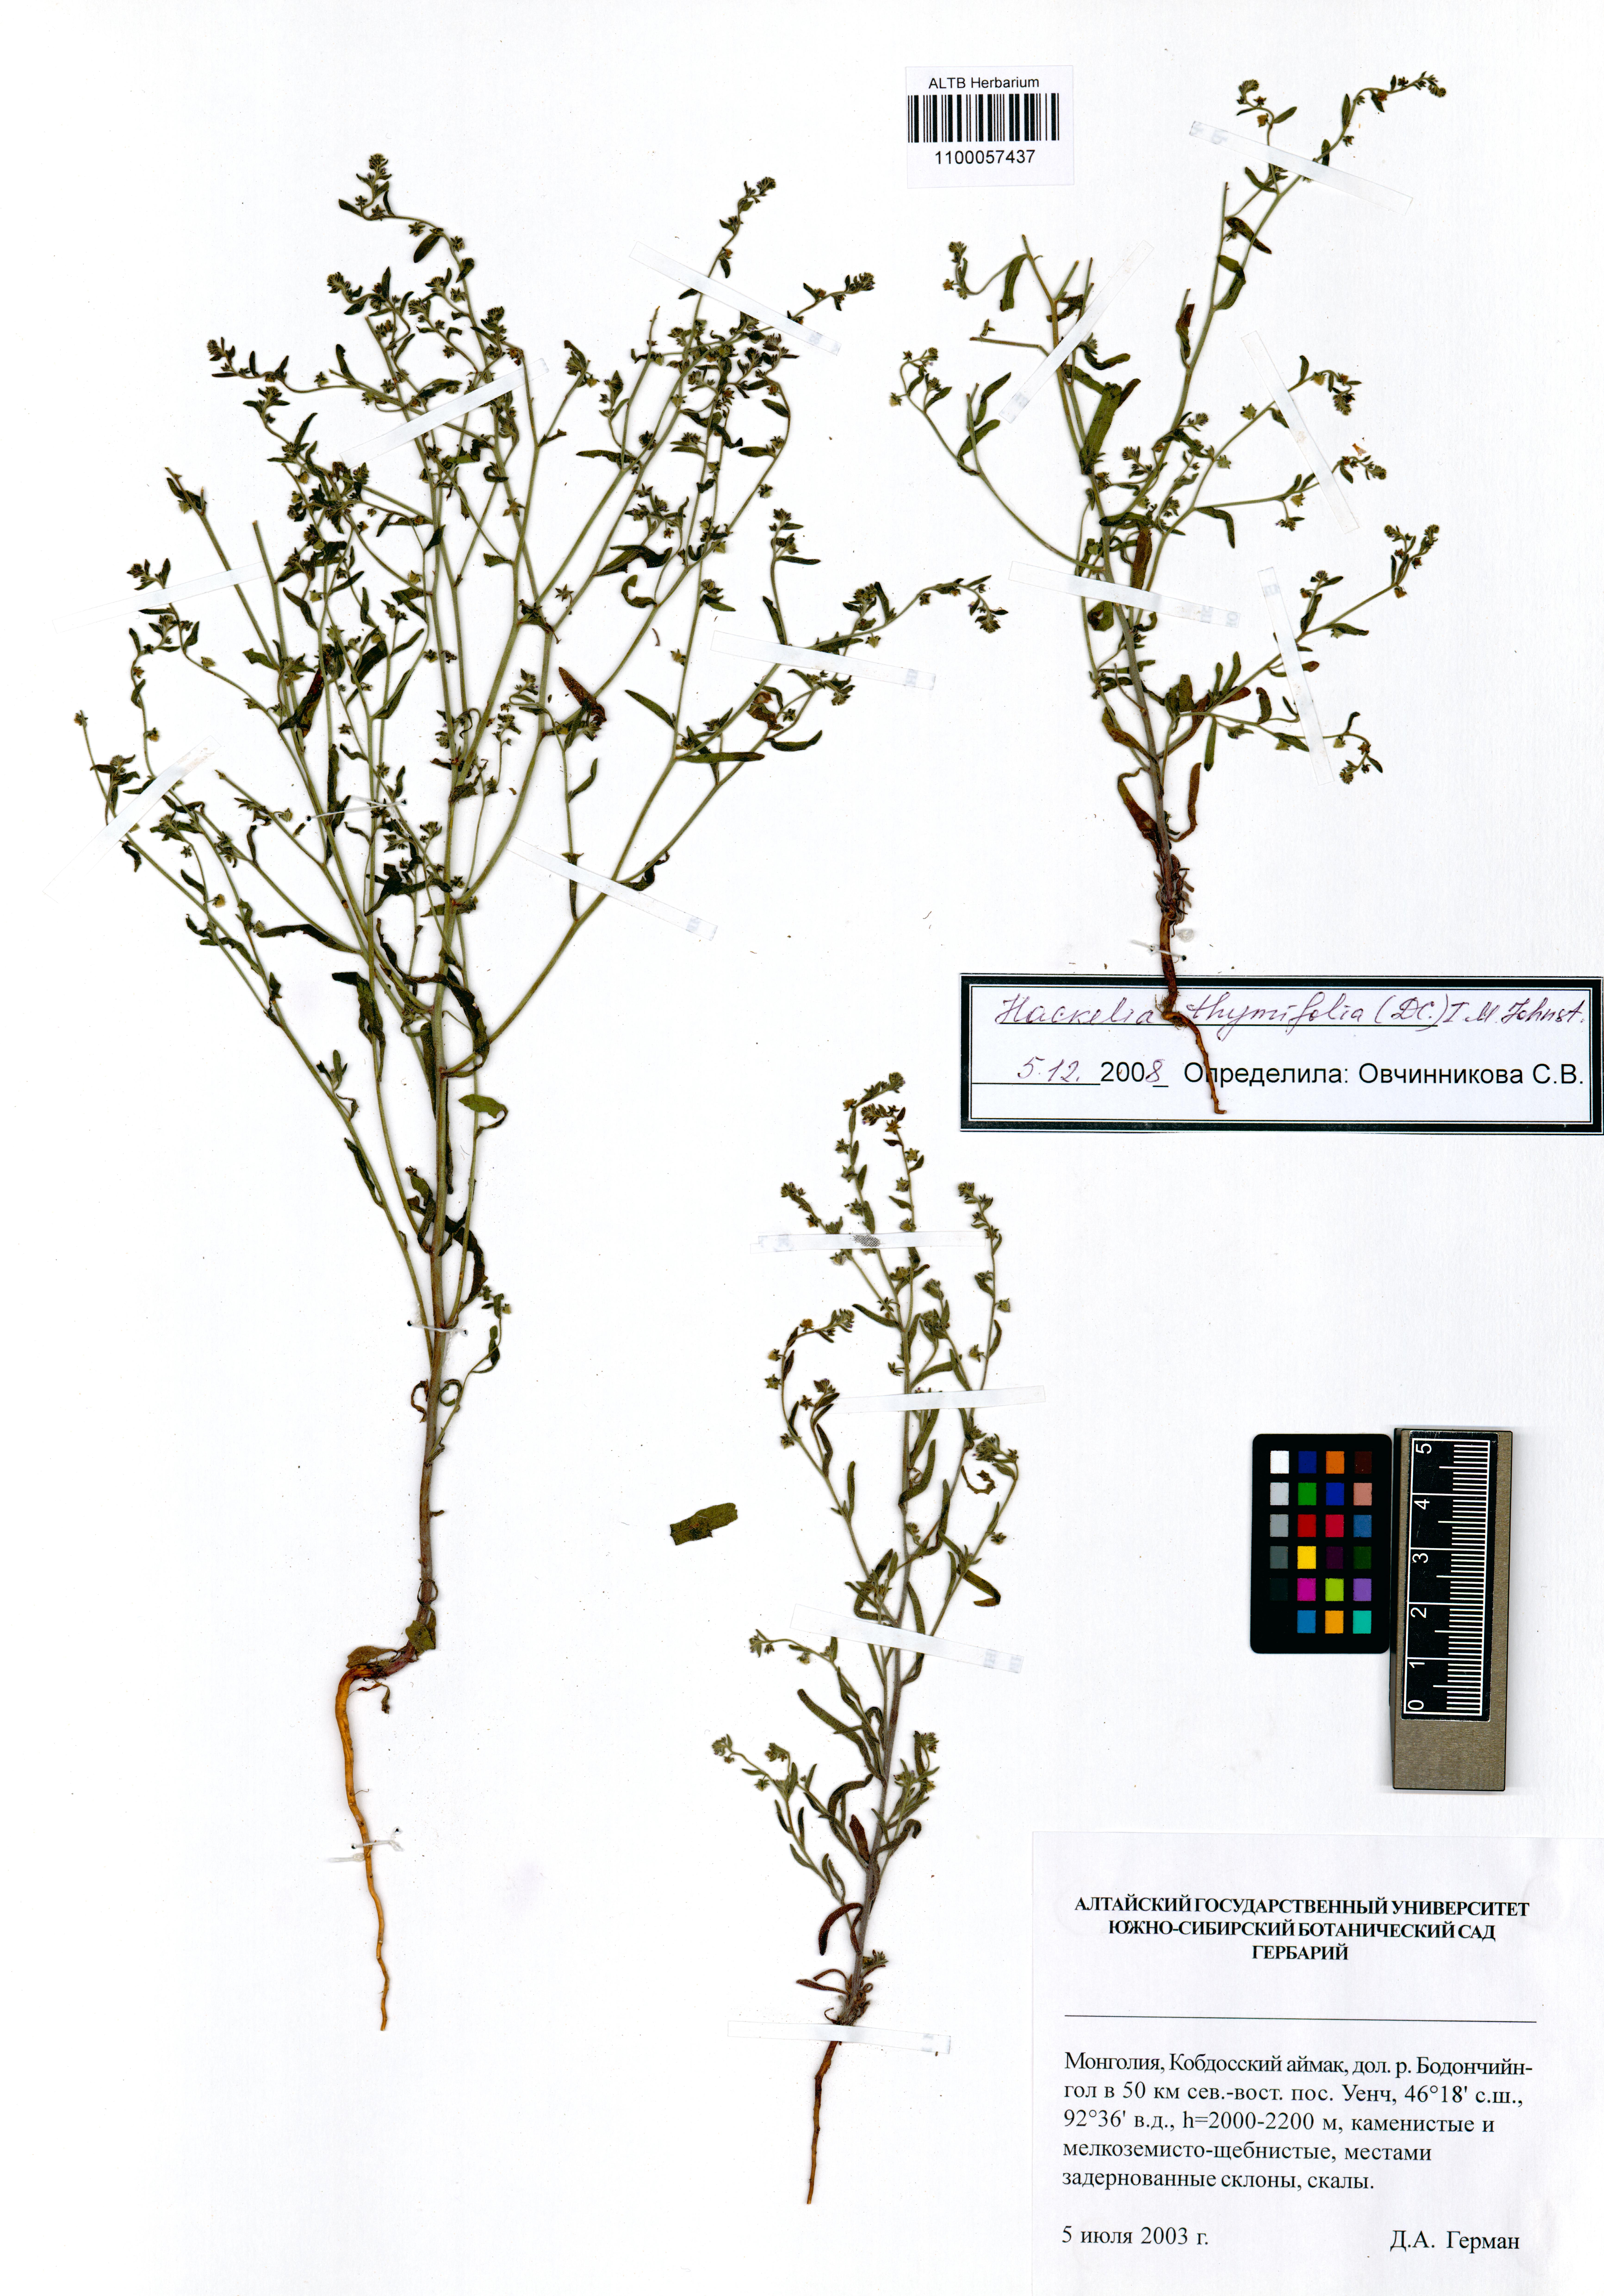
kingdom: Plantae
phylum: Tracheophyta
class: Magnoliopsida
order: Boraginales
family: Boraginaceae
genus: Eritrichium
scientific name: Eritrichium thymifolium
